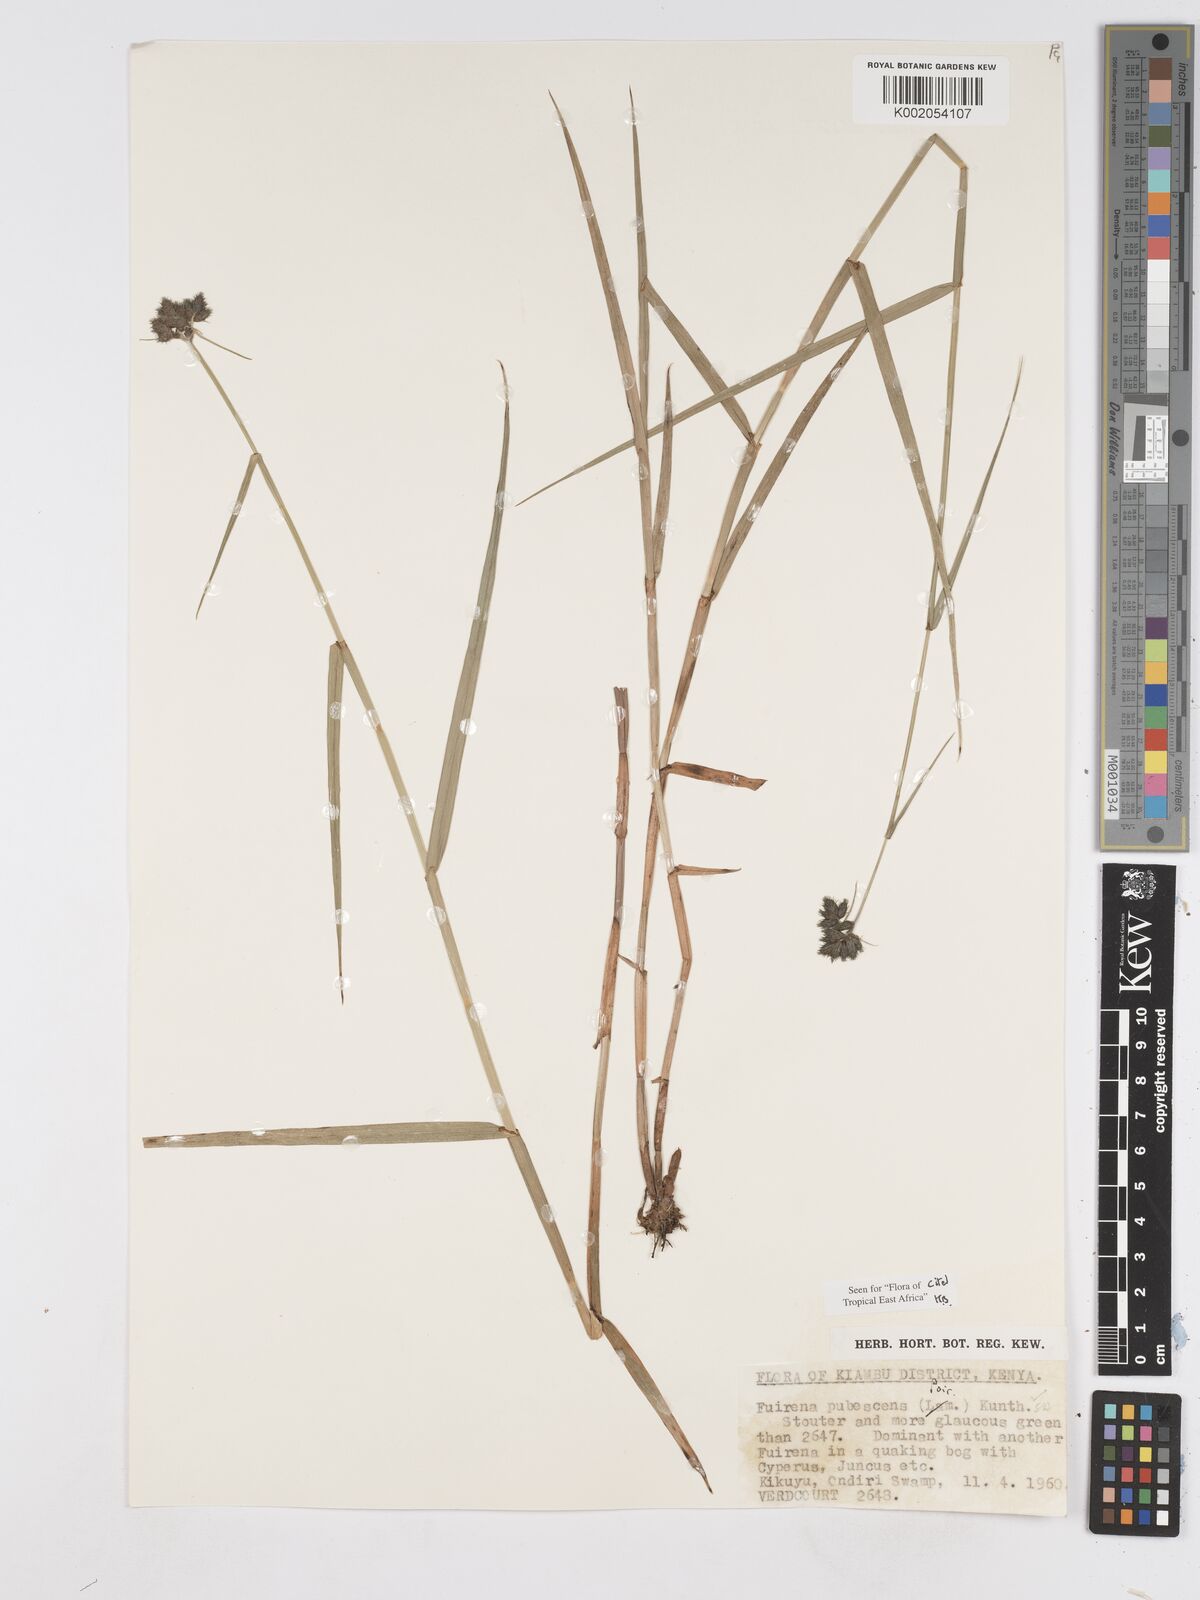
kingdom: Plantae
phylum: Tracheophyta
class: Liliopsida
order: Poales
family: Cyperaceae
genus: Fuirena
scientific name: Fuirena pubescens
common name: Hairy sedge
